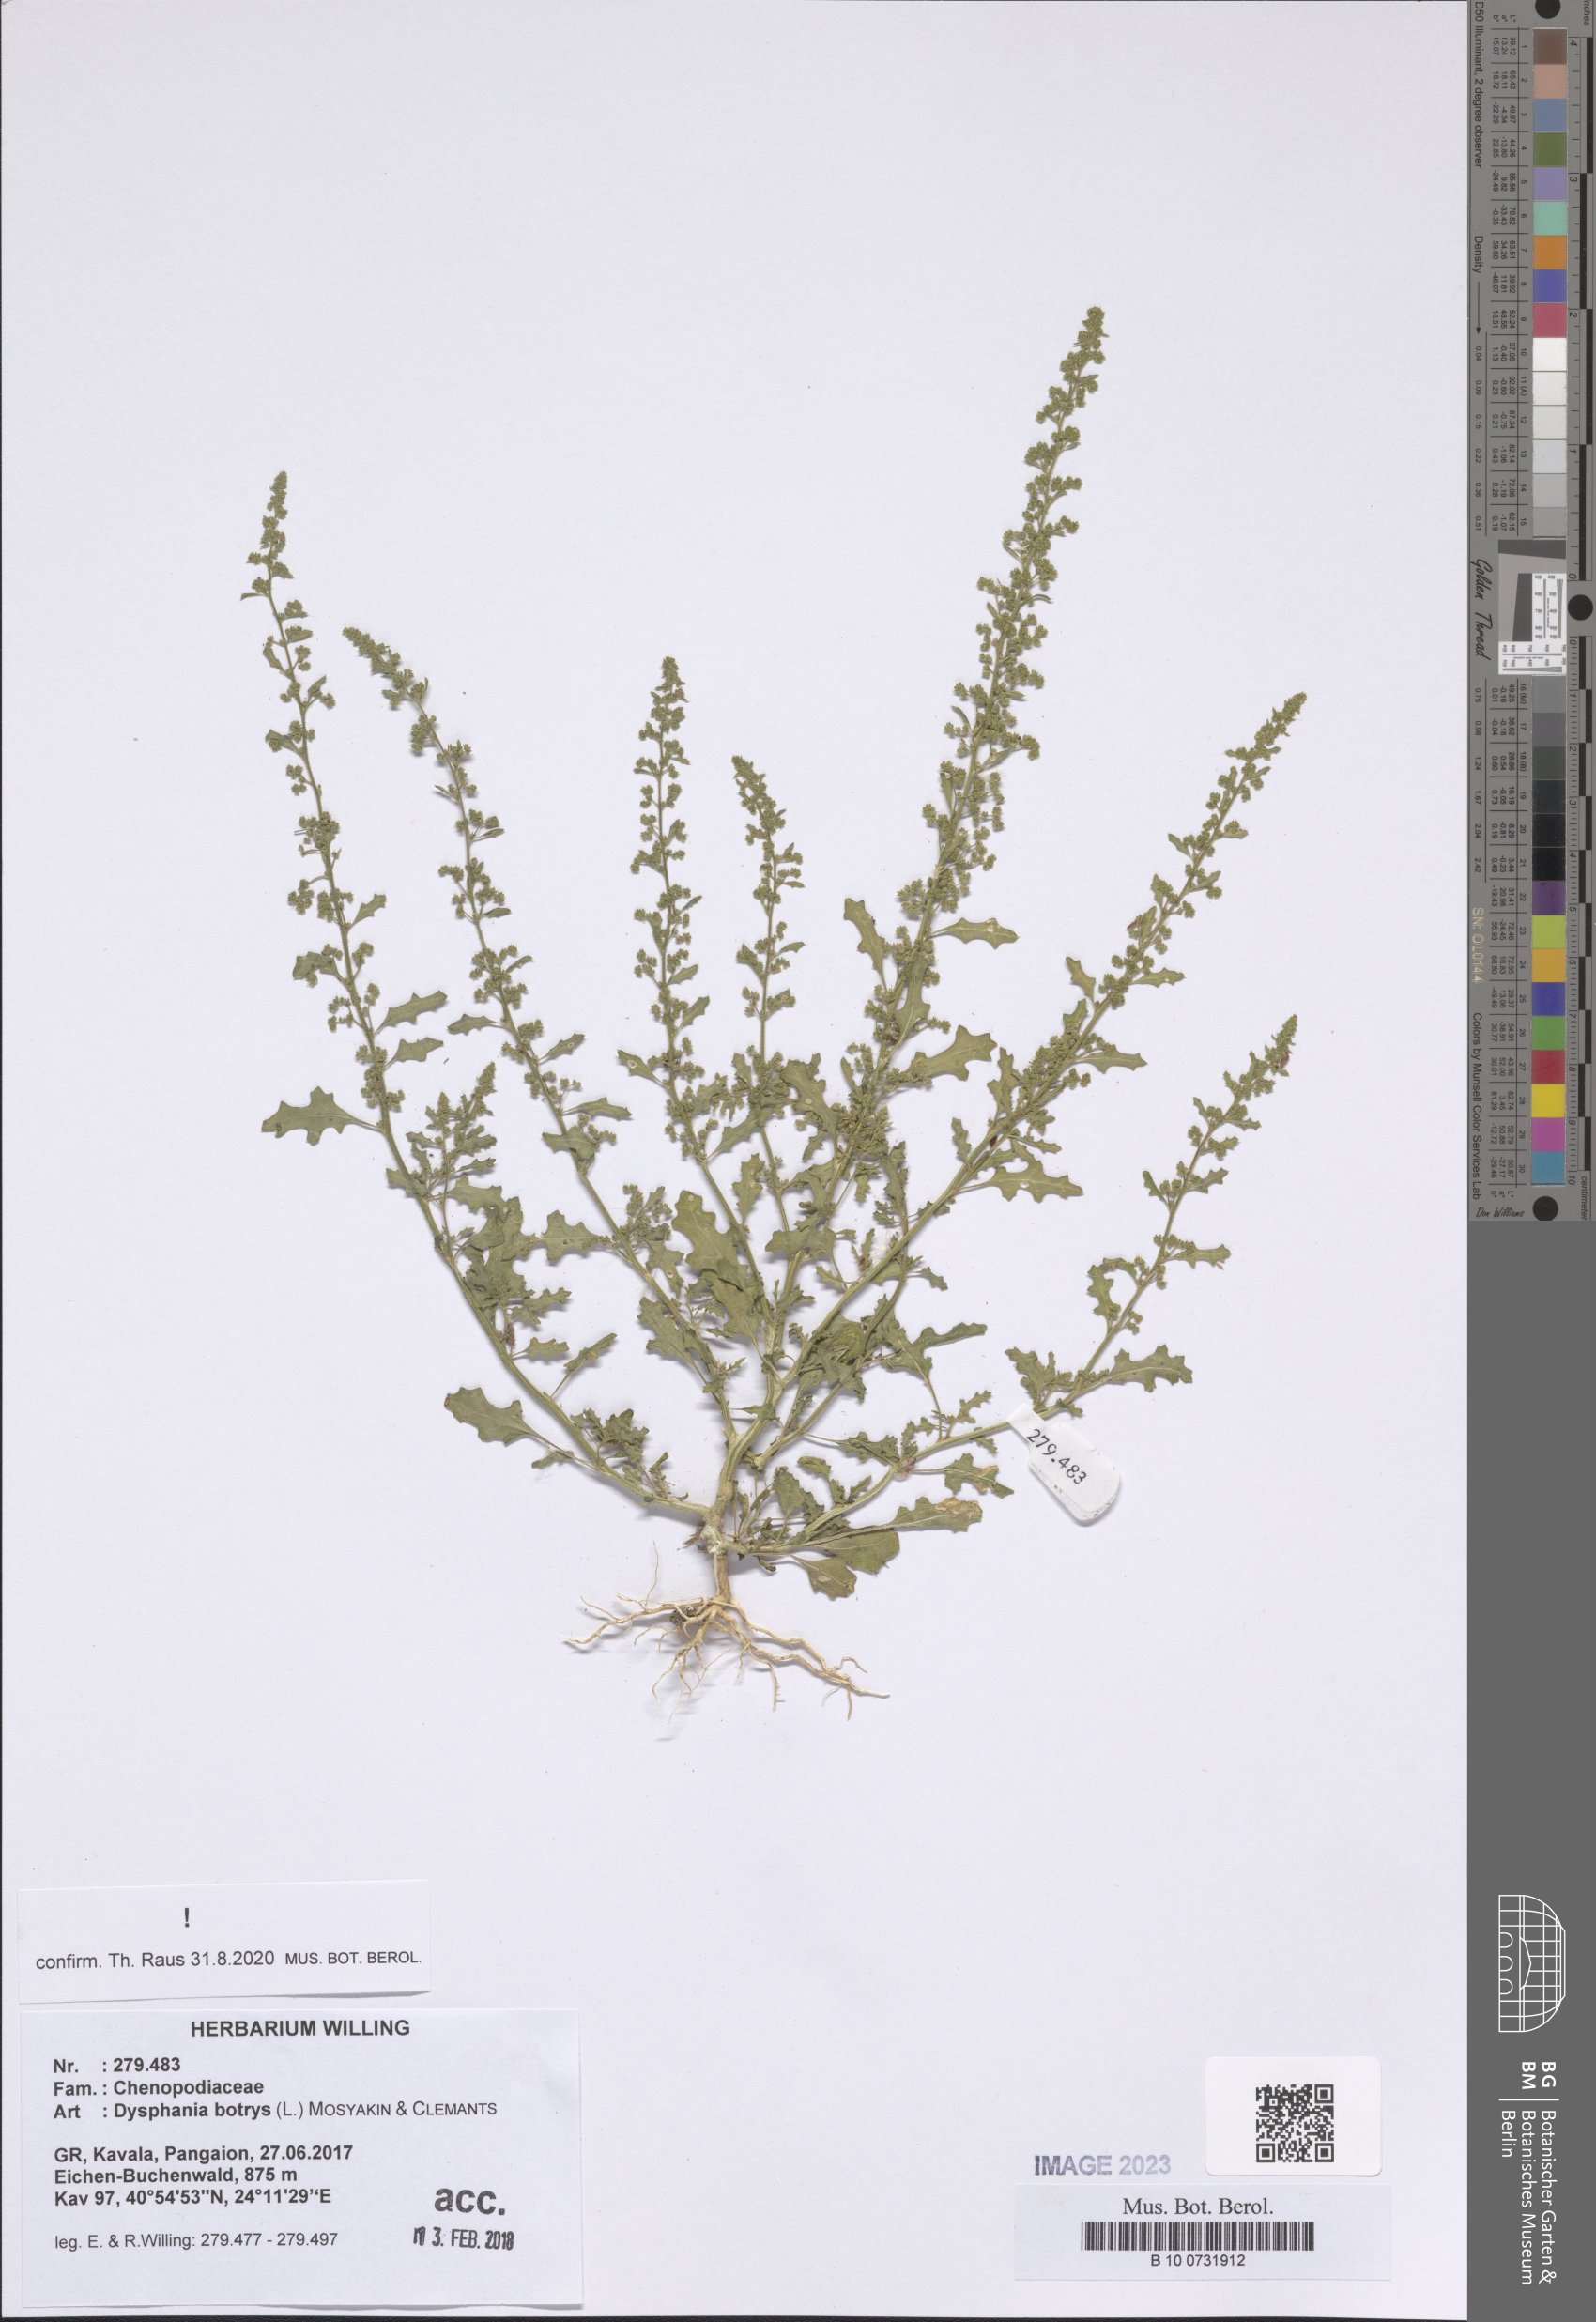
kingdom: Plantae
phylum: Tracheophyta
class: Magnoliopsida
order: Caryophyllales
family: Amaranthaceae
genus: Dysphania
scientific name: Dysphania botrys
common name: Feather-geranium
